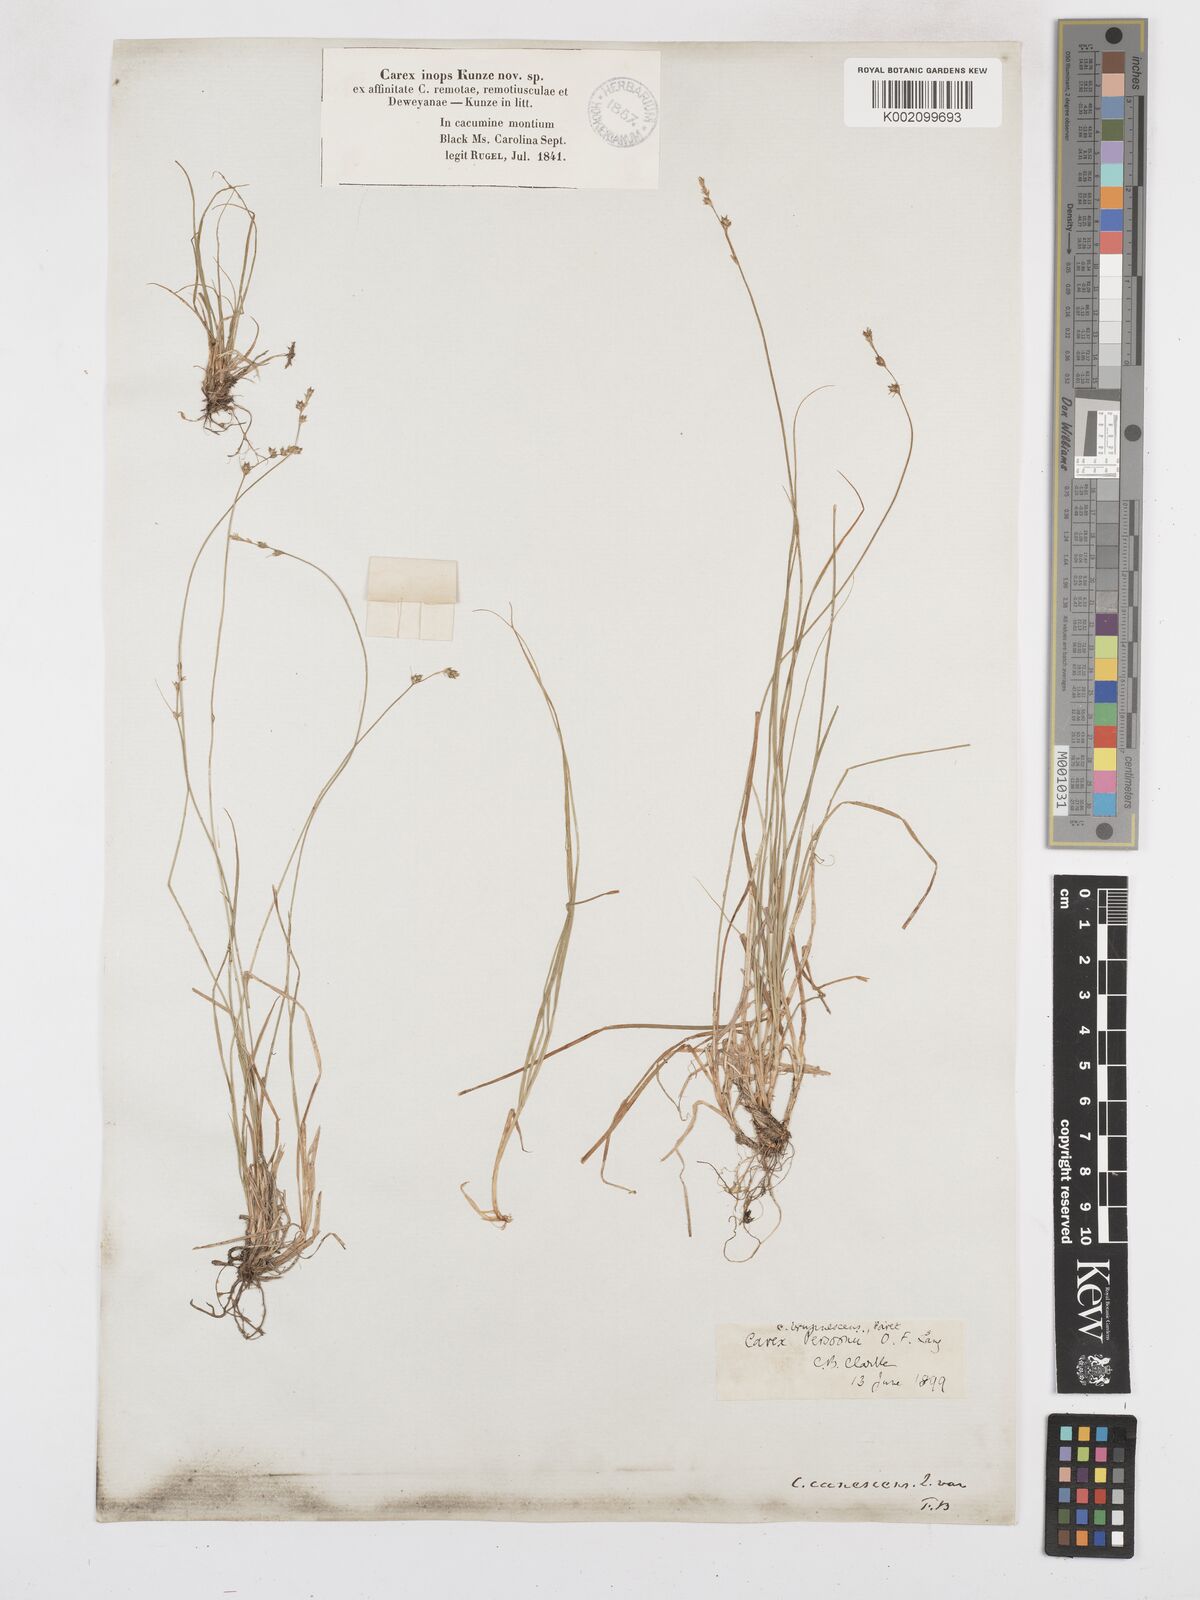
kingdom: Plantae
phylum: Tracheophyta
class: Liliopsida
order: Poales
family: Cyperaceae
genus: Carex
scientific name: Carex brunnescens
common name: Brown sedge
